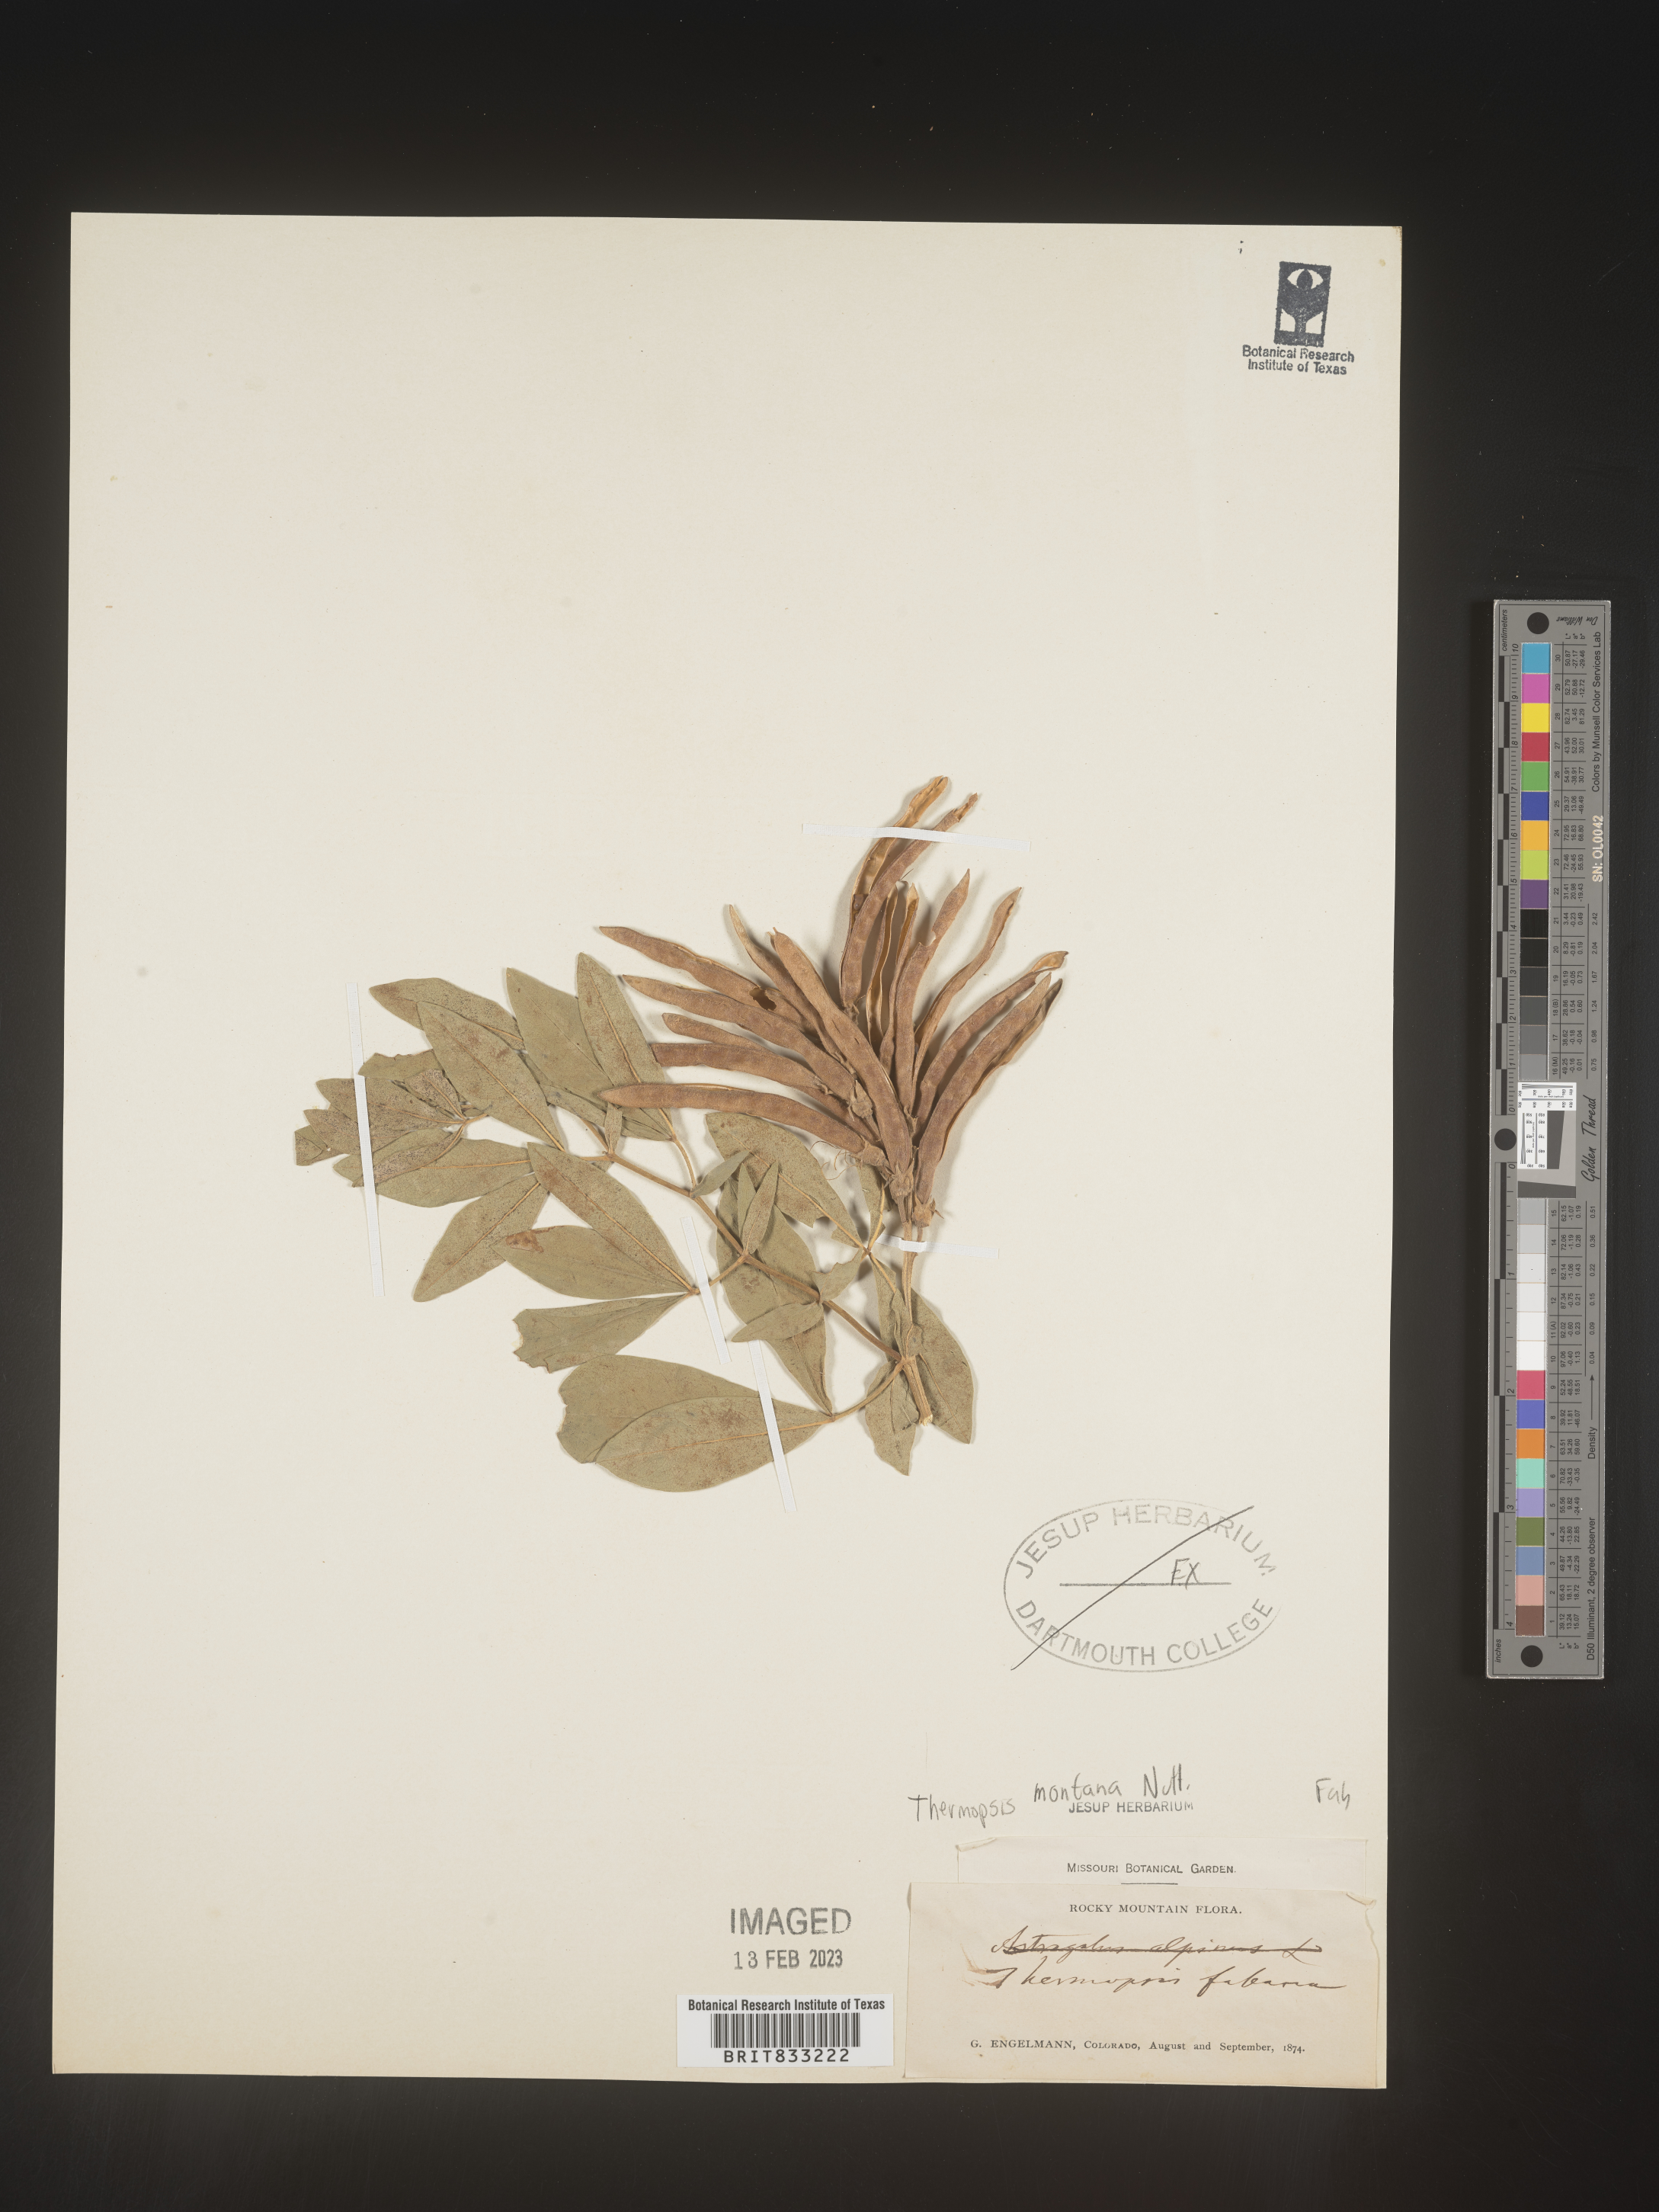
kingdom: Plantae
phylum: Tracheophyta
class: Magnoliopsida
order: Fabales
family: Fabaceae
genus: Thermopsis
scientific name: Thermopsis montana
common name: False lupin
